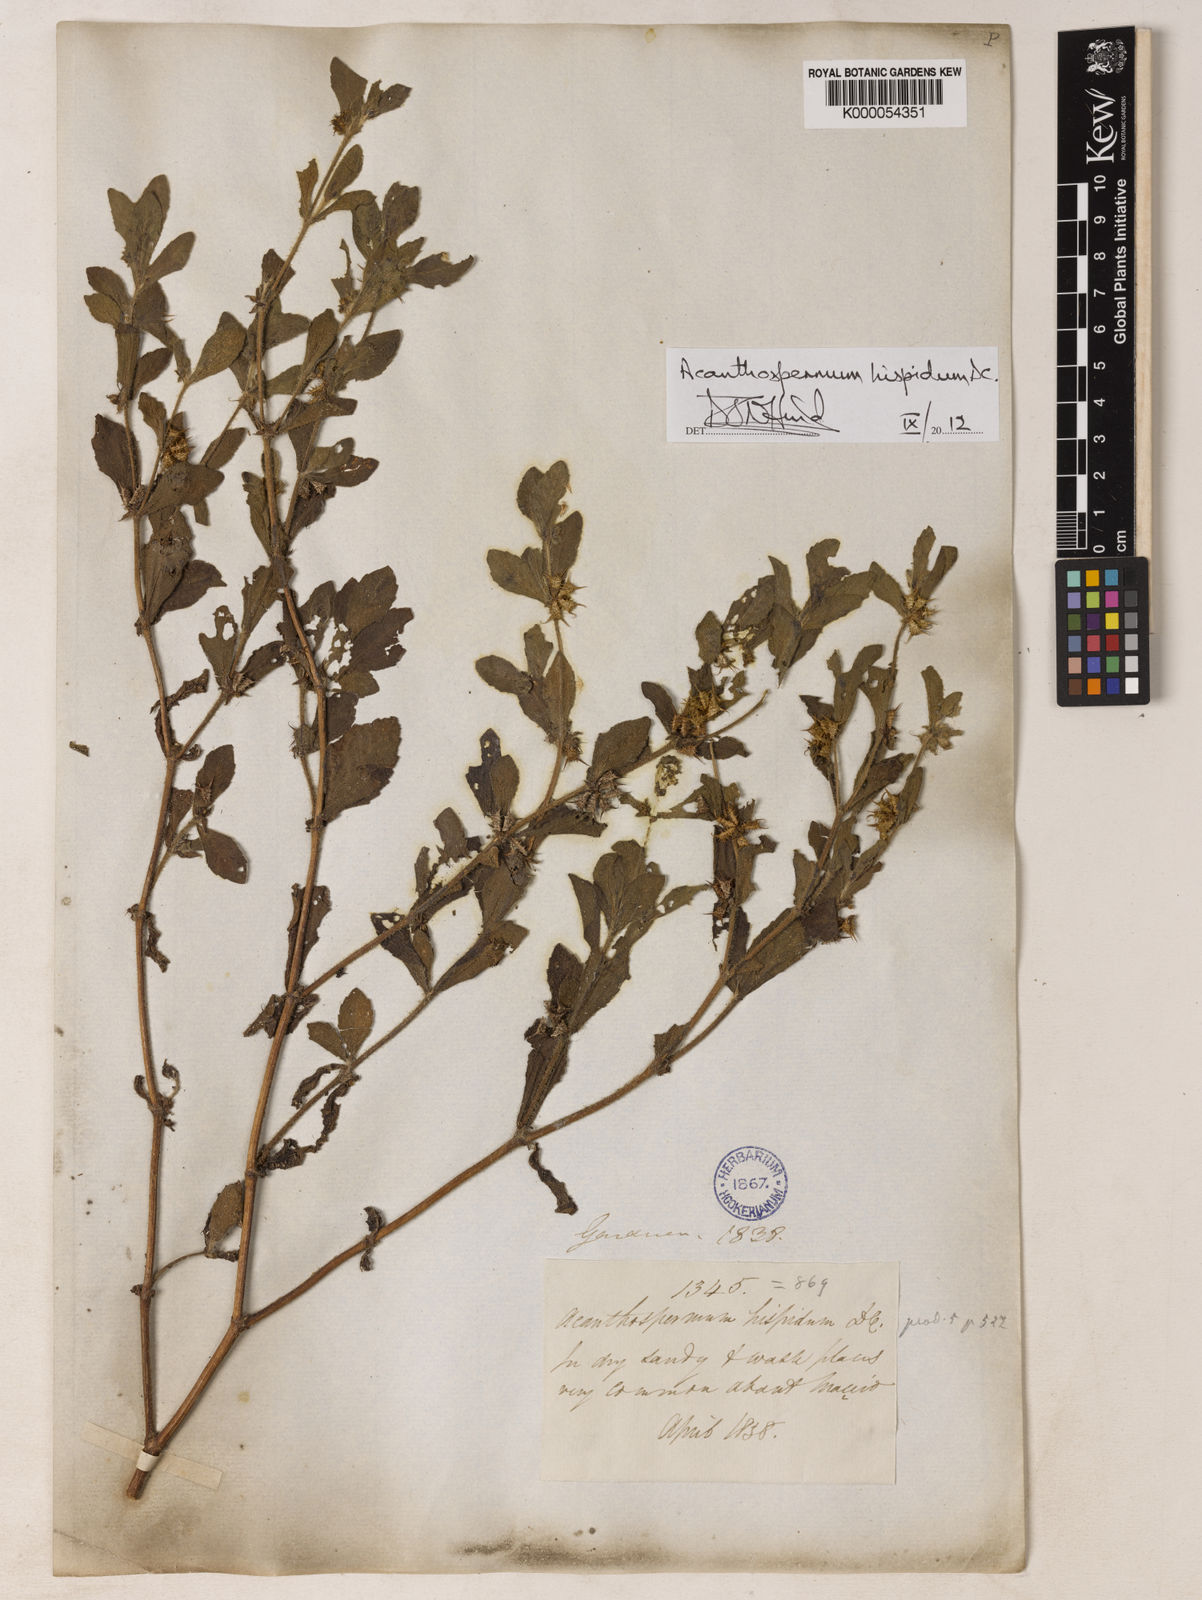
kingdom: Plantae
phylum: Tracheophyta
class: Magnoliopsida
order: Asterales
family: Asteraceae
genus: Acanthospermum
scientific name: Acanthospermum hispidum
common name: Hispid starbur
